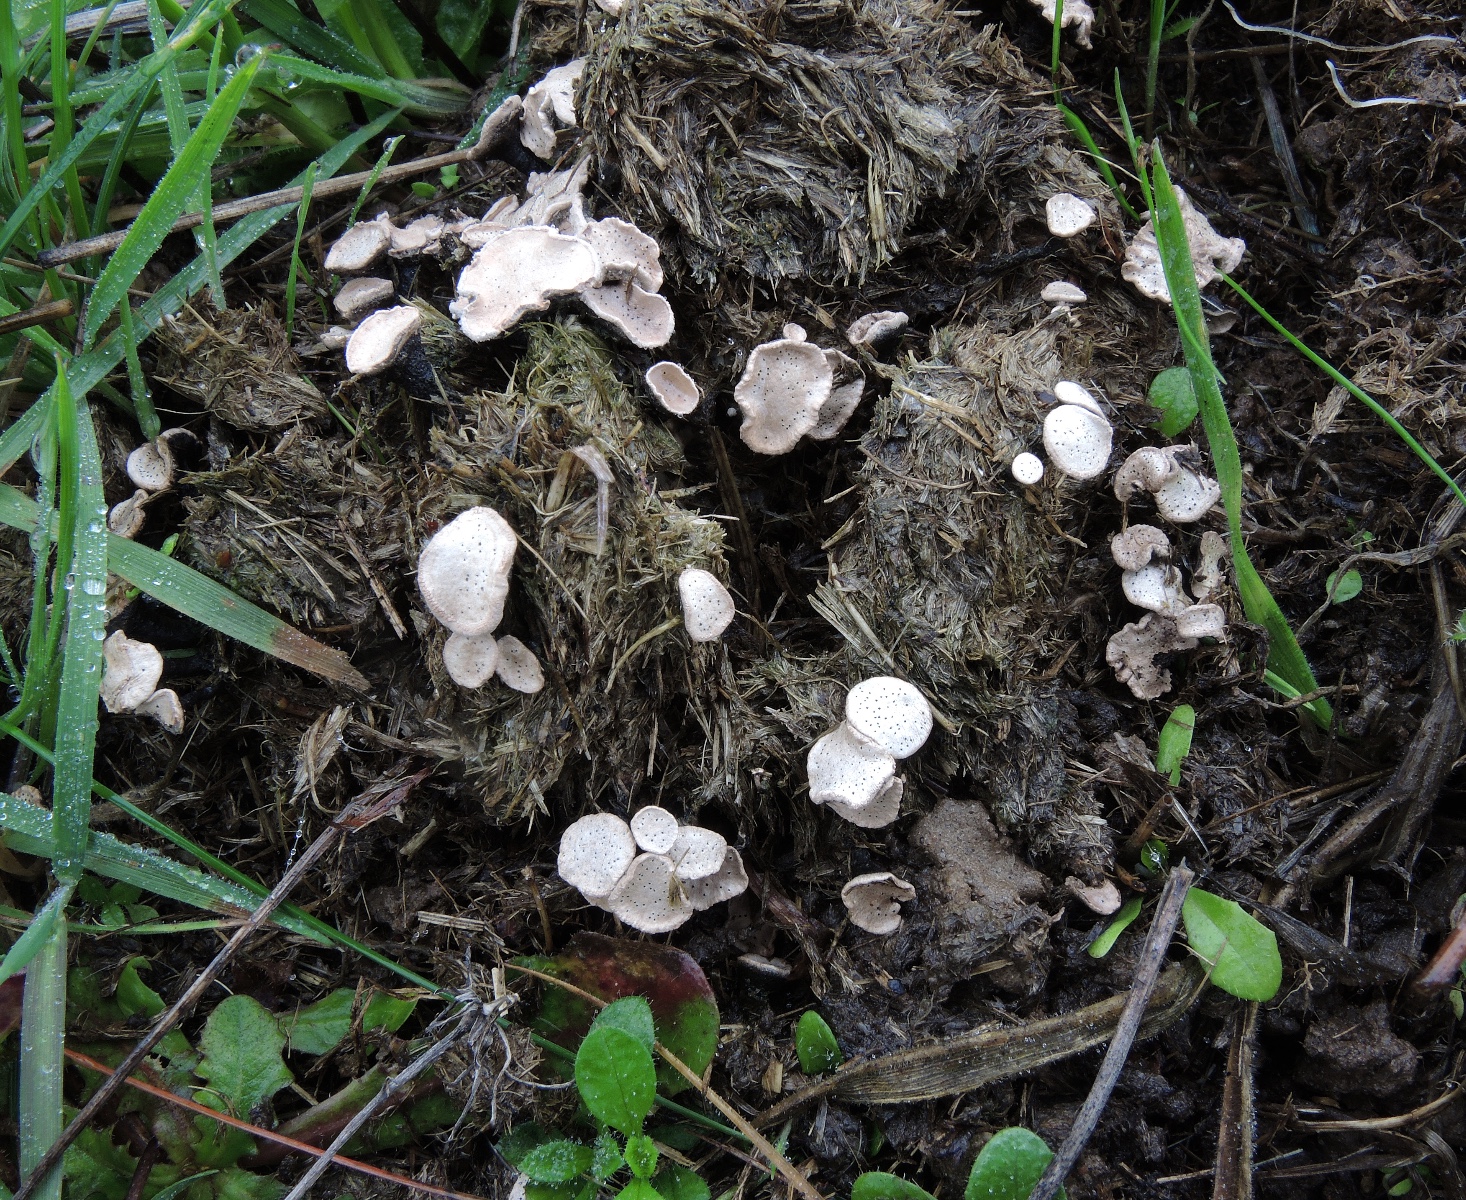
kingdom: Fungi
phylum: Ascomycota
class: Sordariomycetes
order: Xylariales
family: Xylariaceae
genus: Poronia
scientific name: Poronia punctata
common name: stor priksvamp
